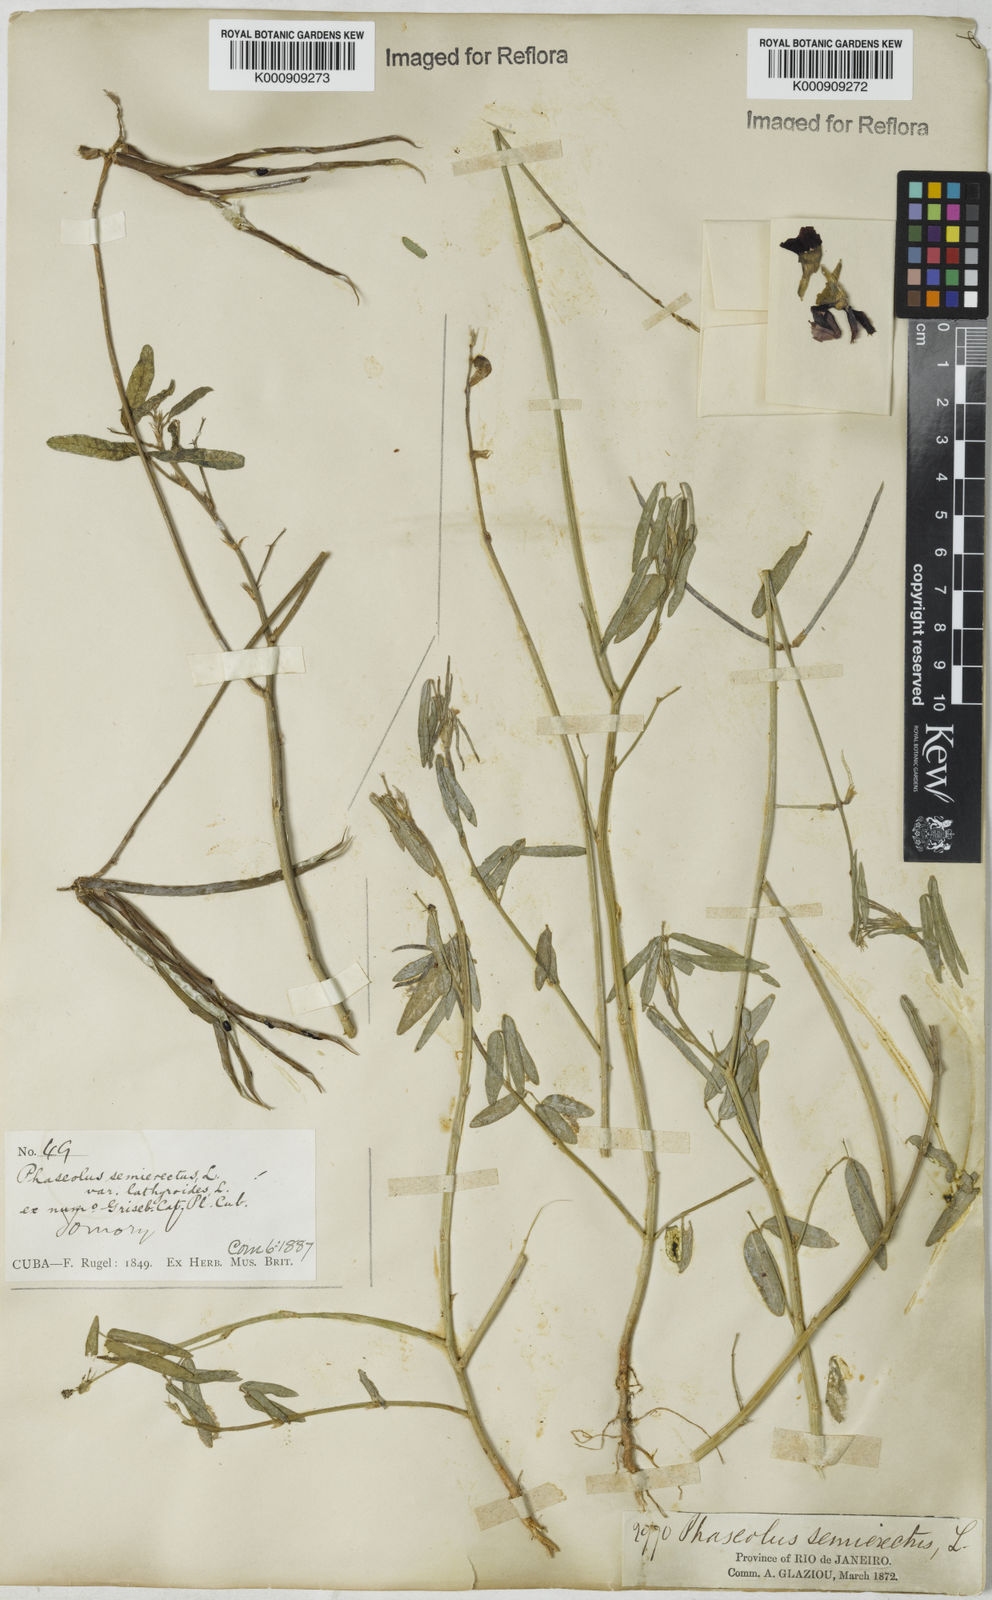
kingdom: Plantae
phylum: Tracheophyta
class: Magnoliopsida
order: Fabales
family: Fabaceae
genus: Macroptilium
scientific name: Macroptilium lathyroides
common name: Wild bushbean
